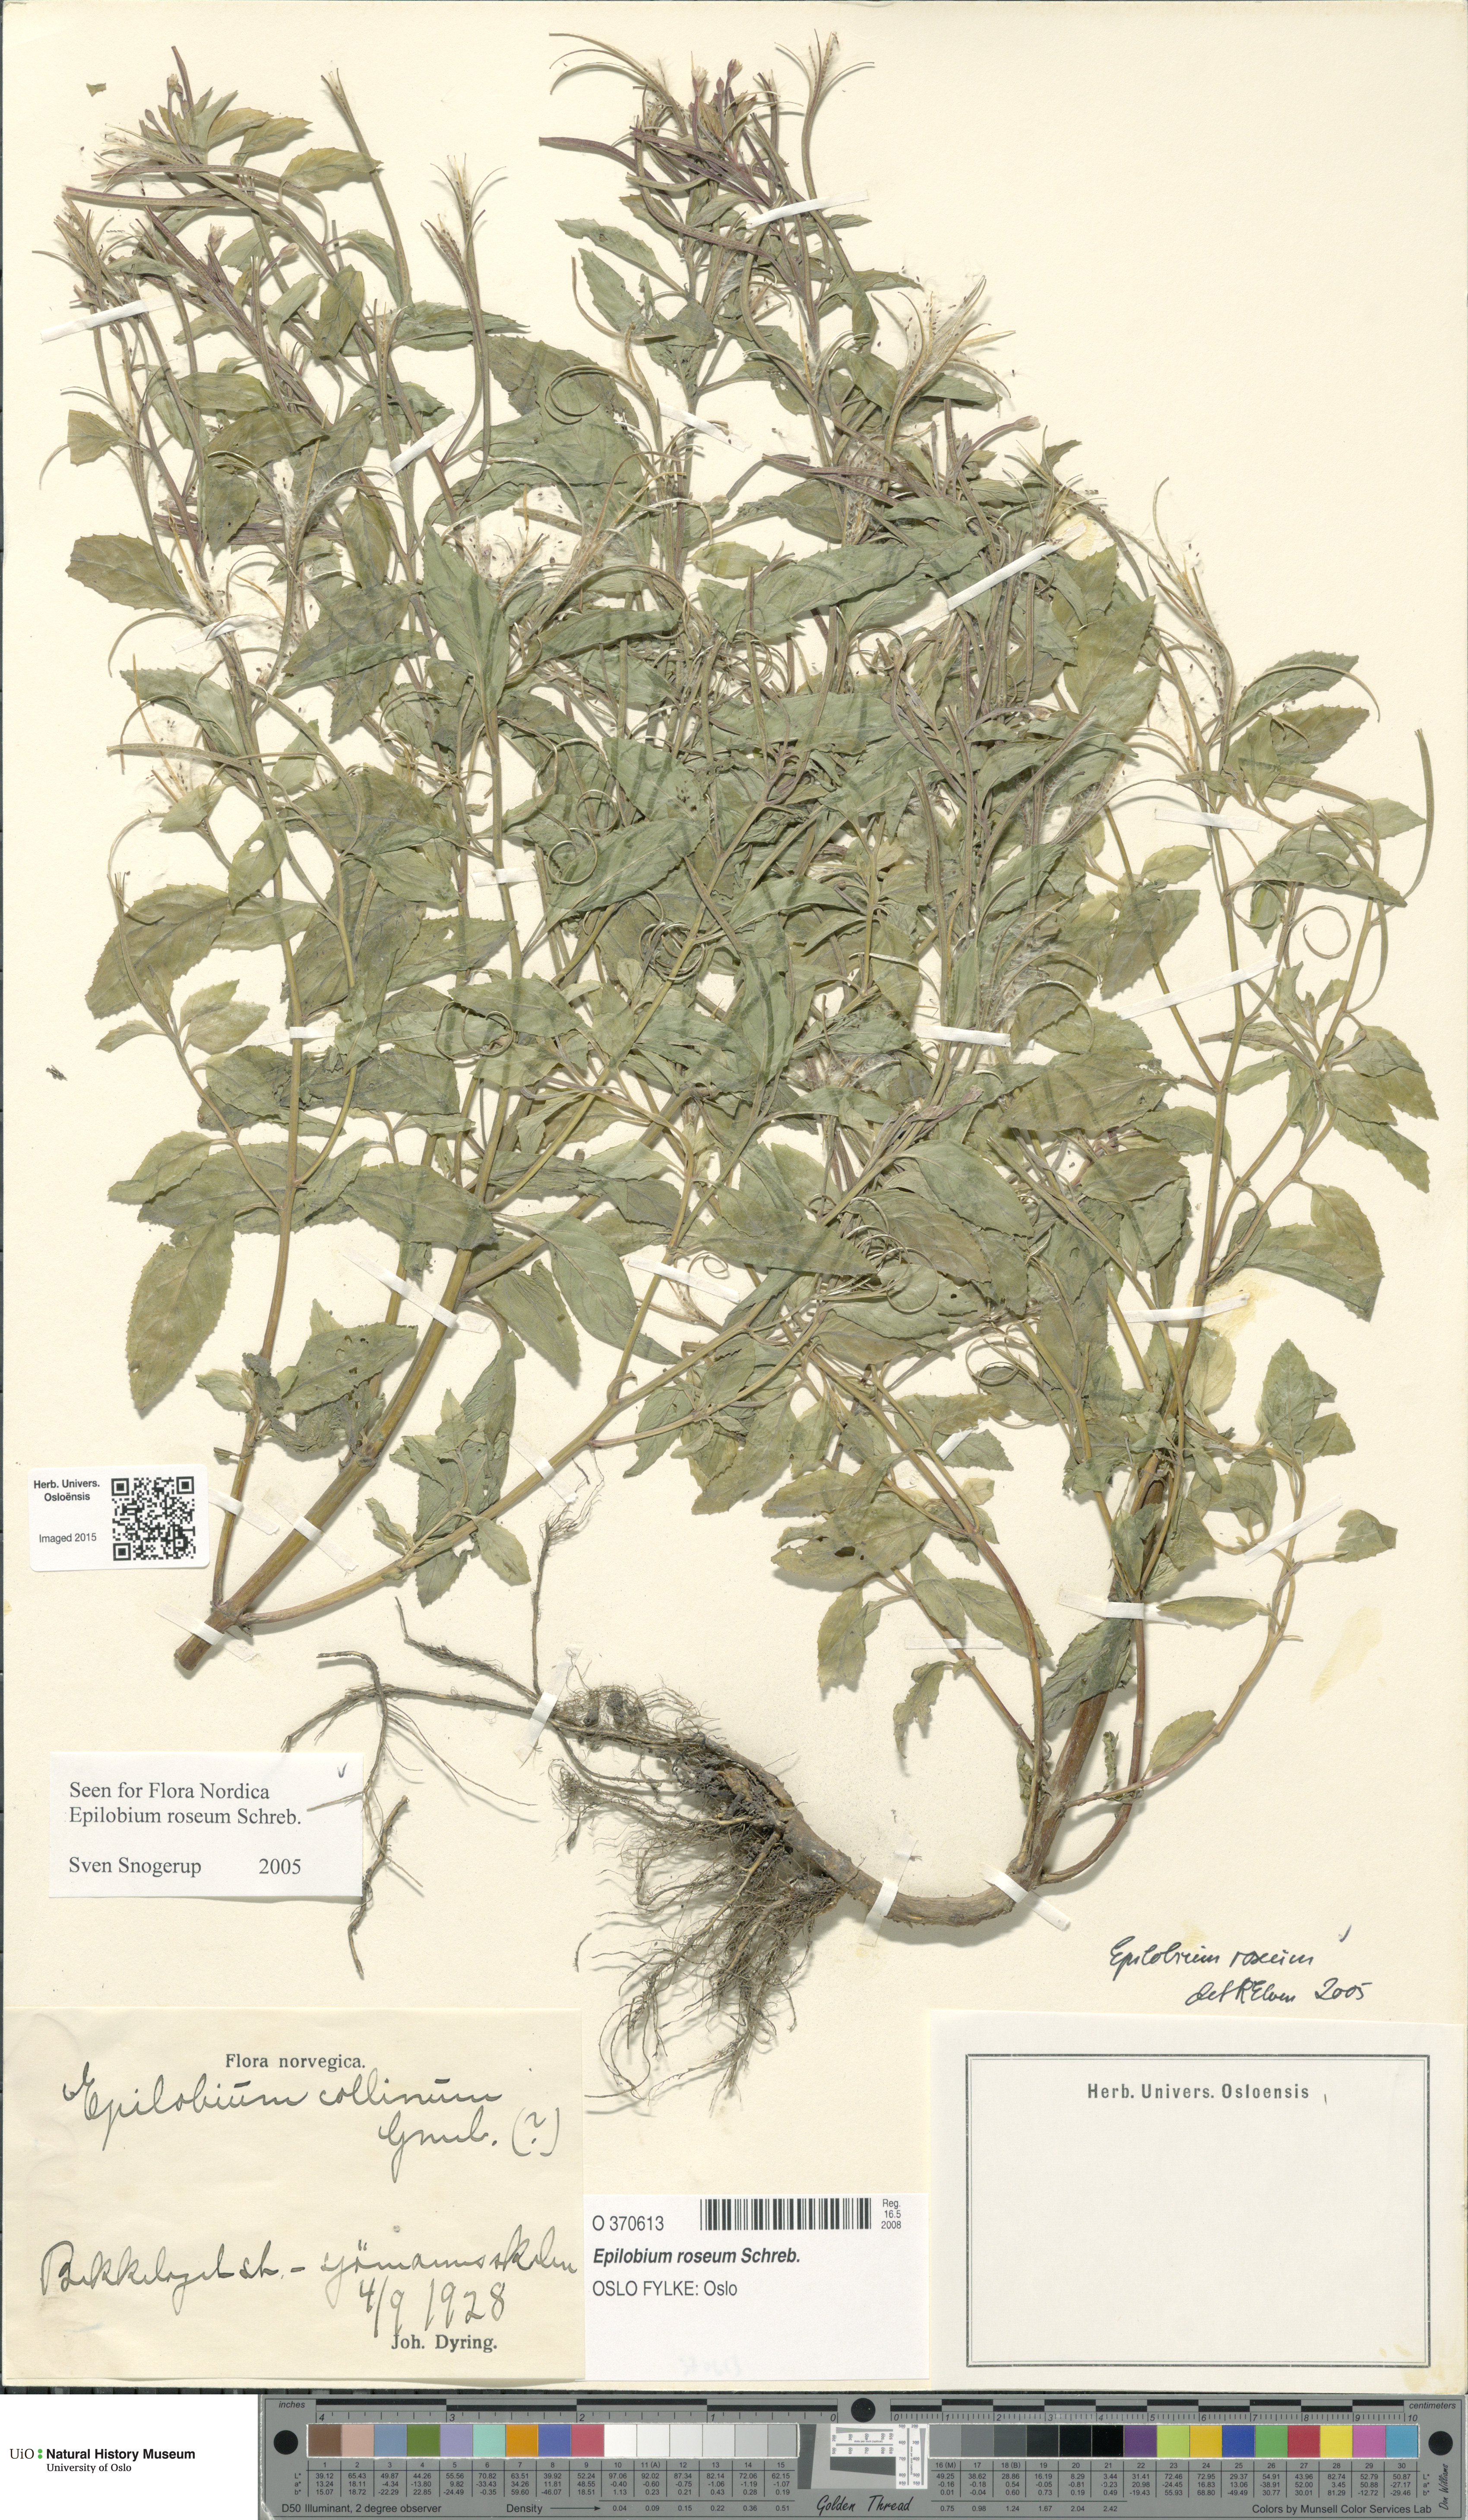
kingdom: Plantae
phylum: Tracheophyta
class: Magnoliopsida
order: Myrtales
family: Onagraceae
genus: Epilobium
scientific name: Epilobium roseum
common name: Pale willowherb
